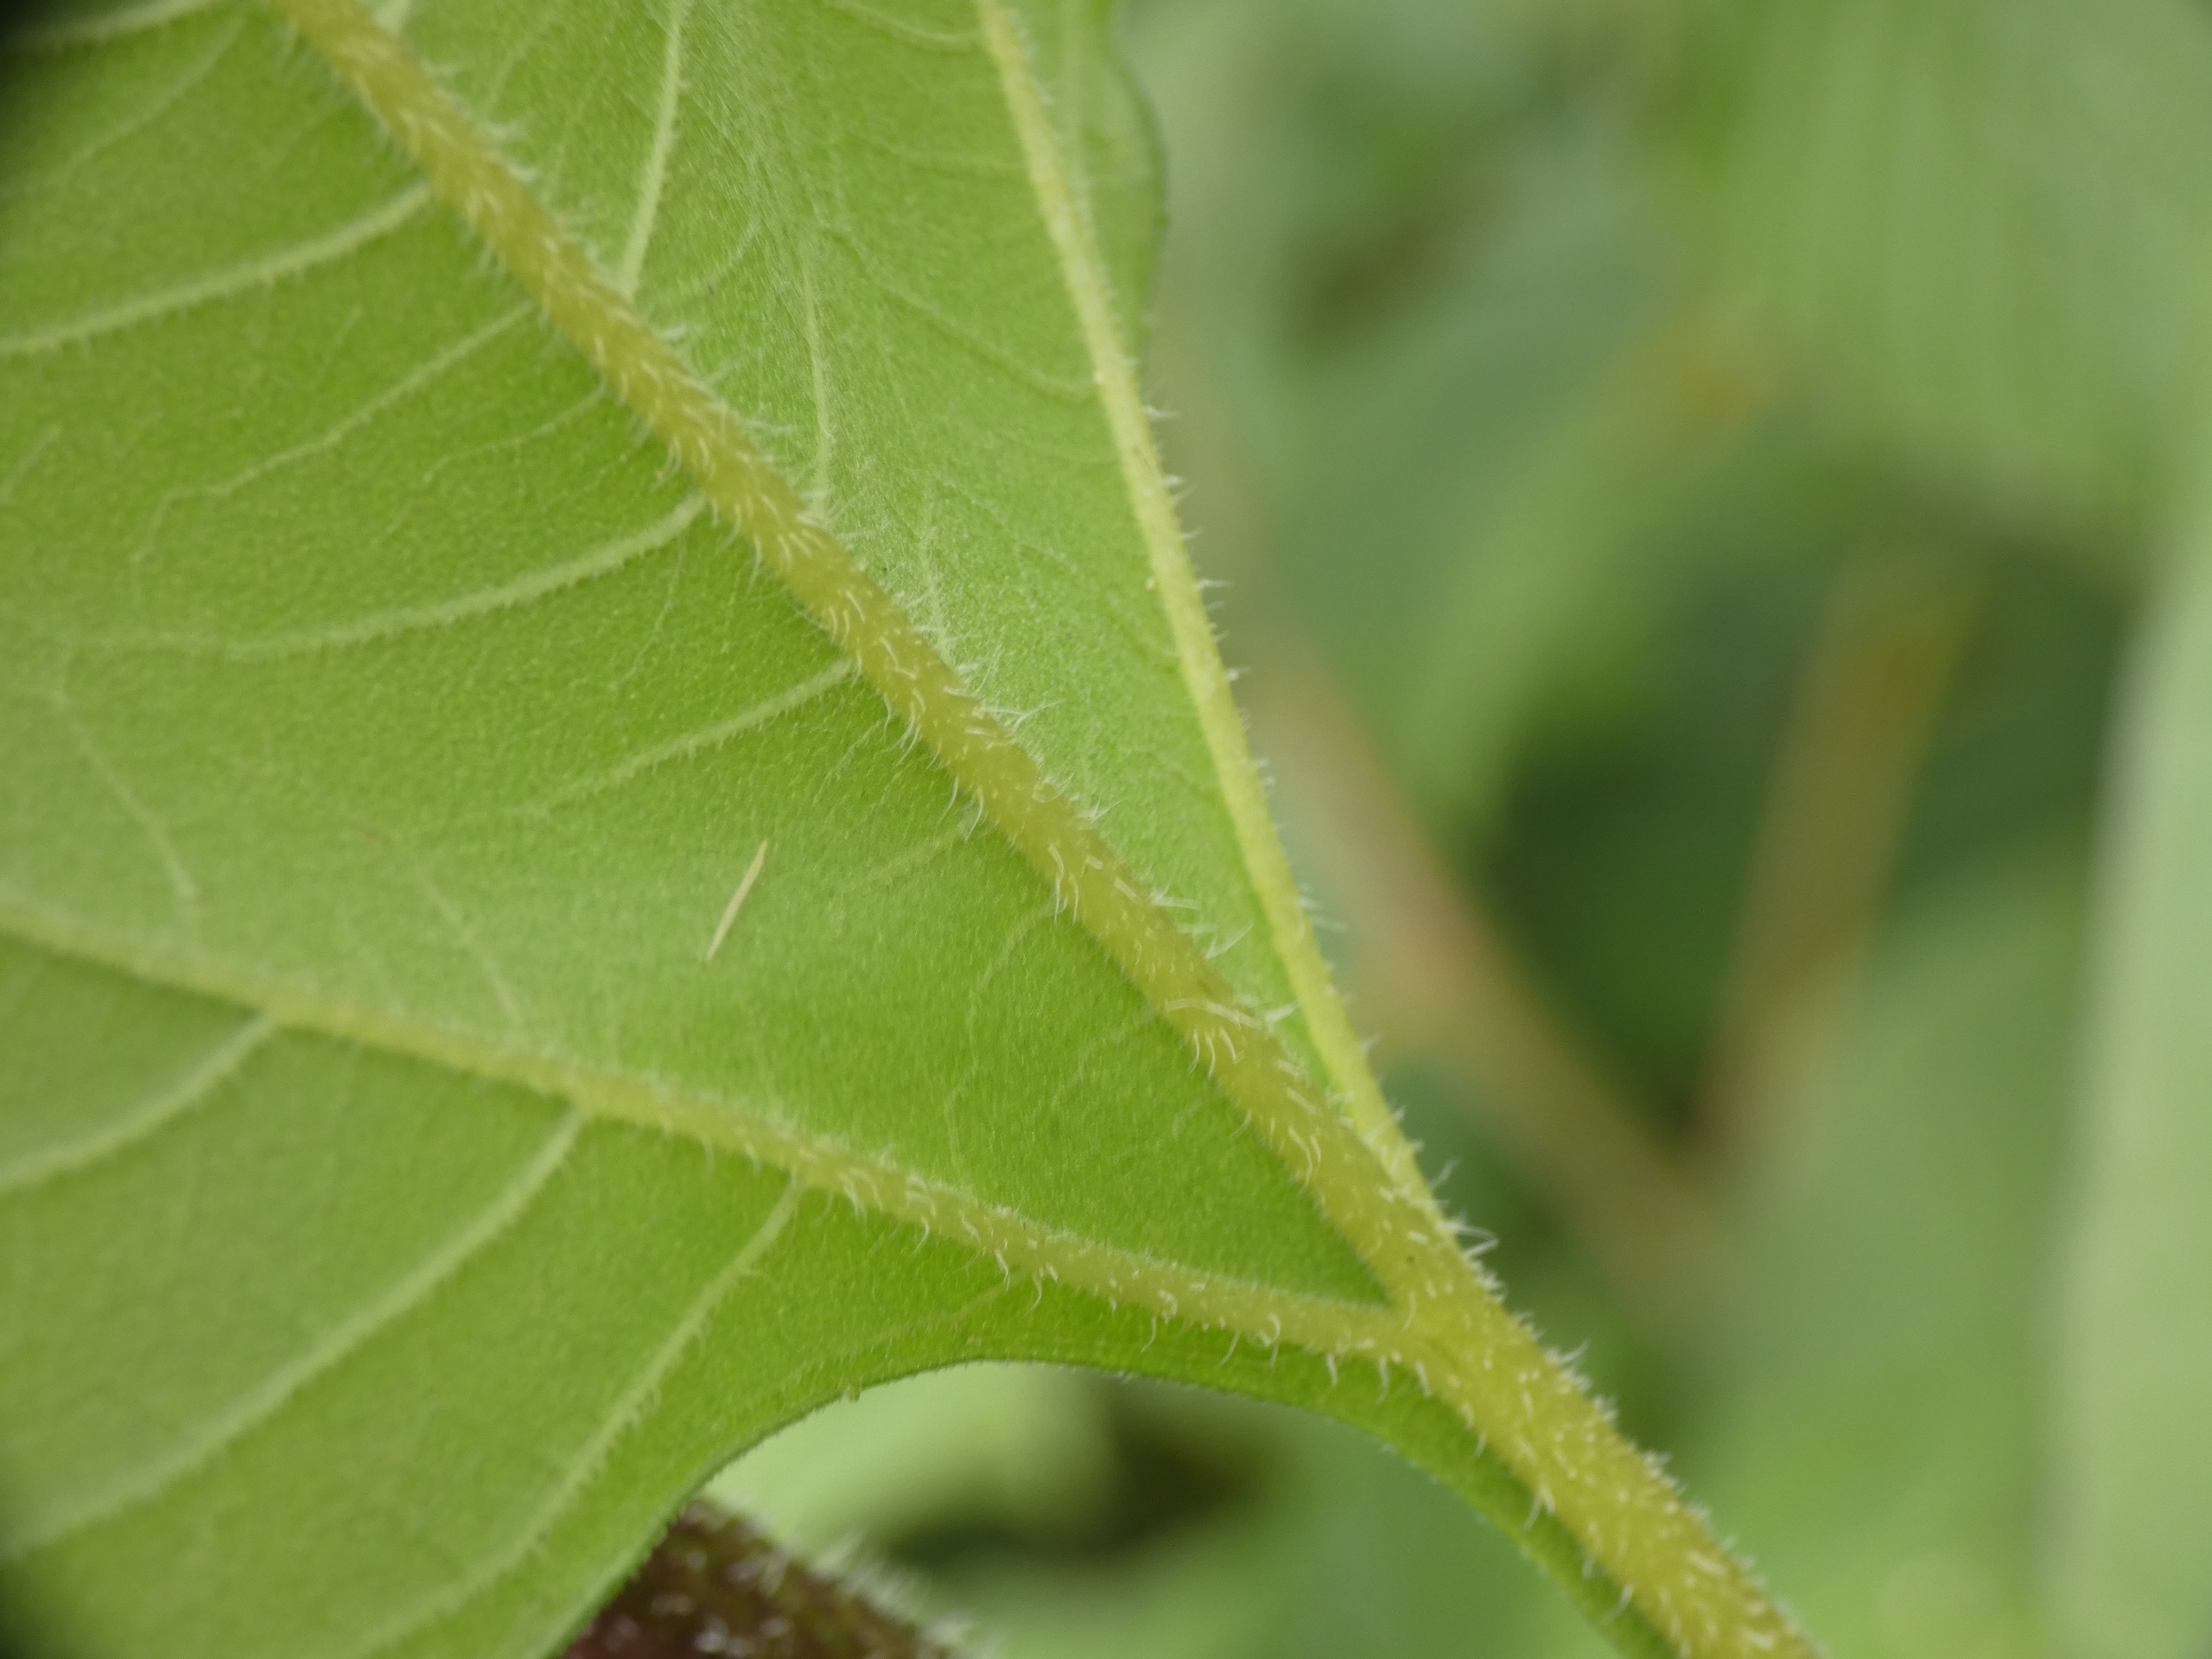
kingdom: Plantae
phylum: Tracheophyta
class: Magnoliopsida
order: Asterales
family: Asteraceae
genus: Helianthus
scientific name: Helianthus tuberosus
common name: Jordskok
